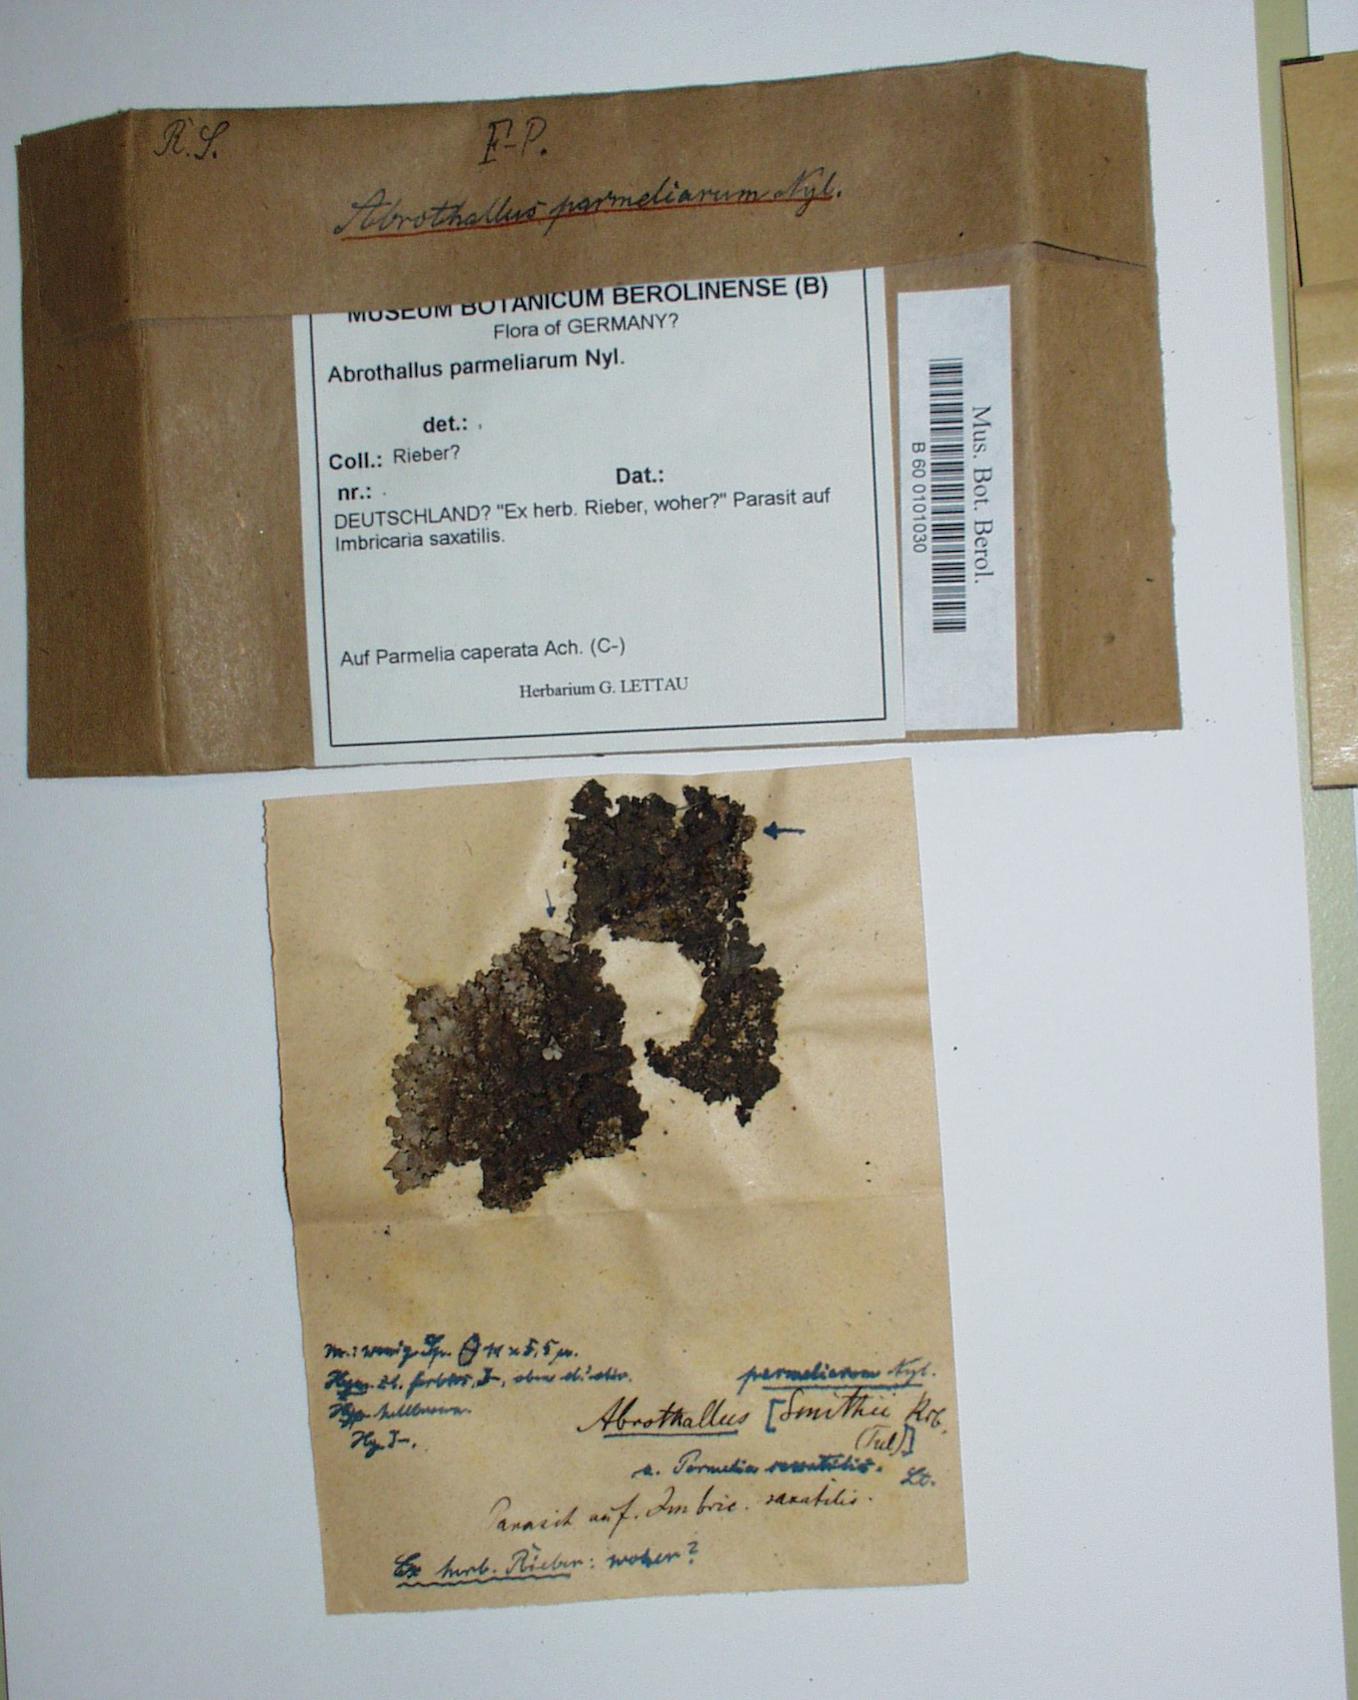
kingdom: Fungi
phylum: Ascomycota
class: Dothideomycetes
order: Abrothallales
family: Abrothallaceae
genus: Abrothallus
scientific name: Abrothallus parmeliarum
